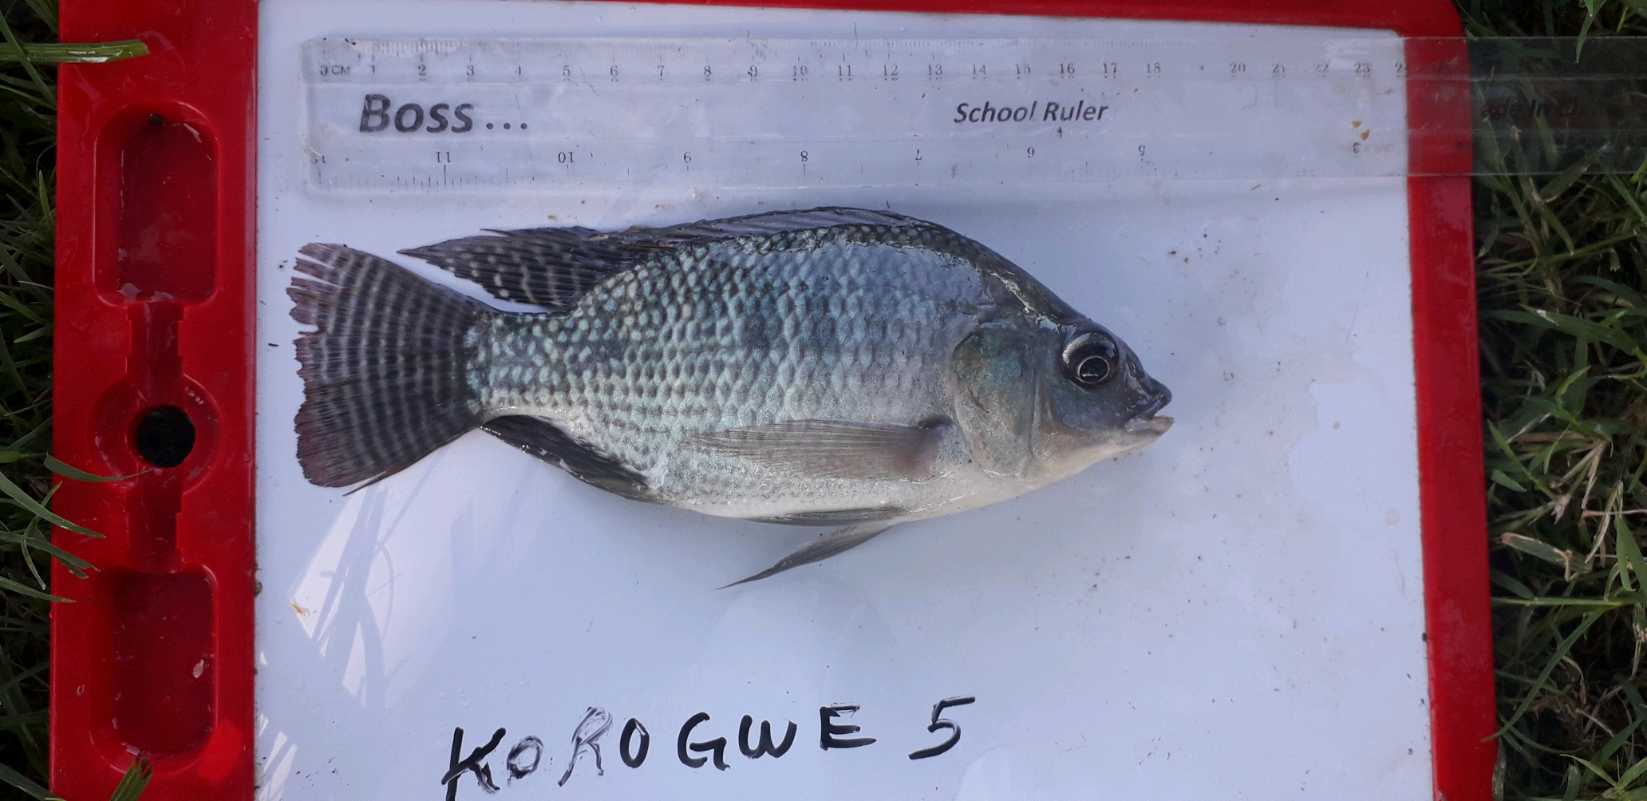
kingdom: Animalia
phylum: Chordata
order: Perciformes
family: Cichlidae
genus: Oreochromis
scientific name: Oreochromis niloticus
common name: Nile tilapia
